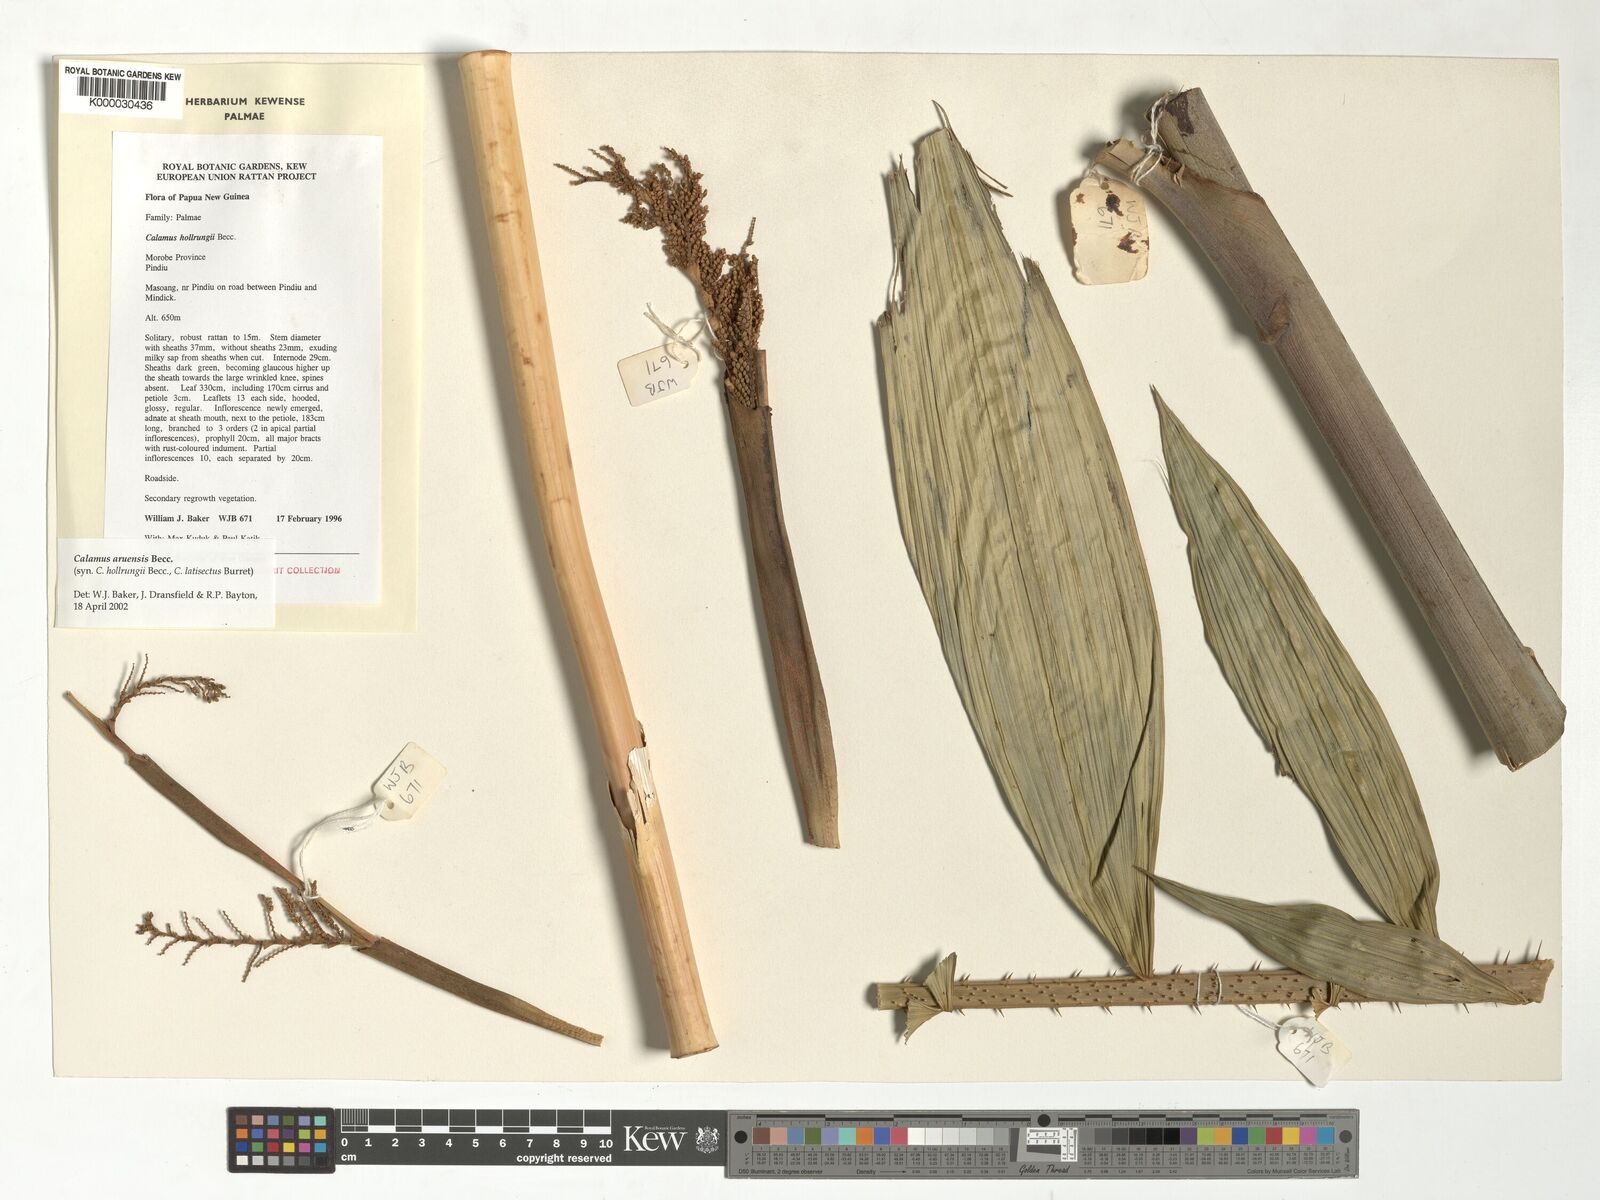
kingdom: Plantae
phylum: Tracheophyta
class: Liliopsida
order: Arecales
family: Arecaceae
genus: Calamus
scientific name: Calamus aruensis
